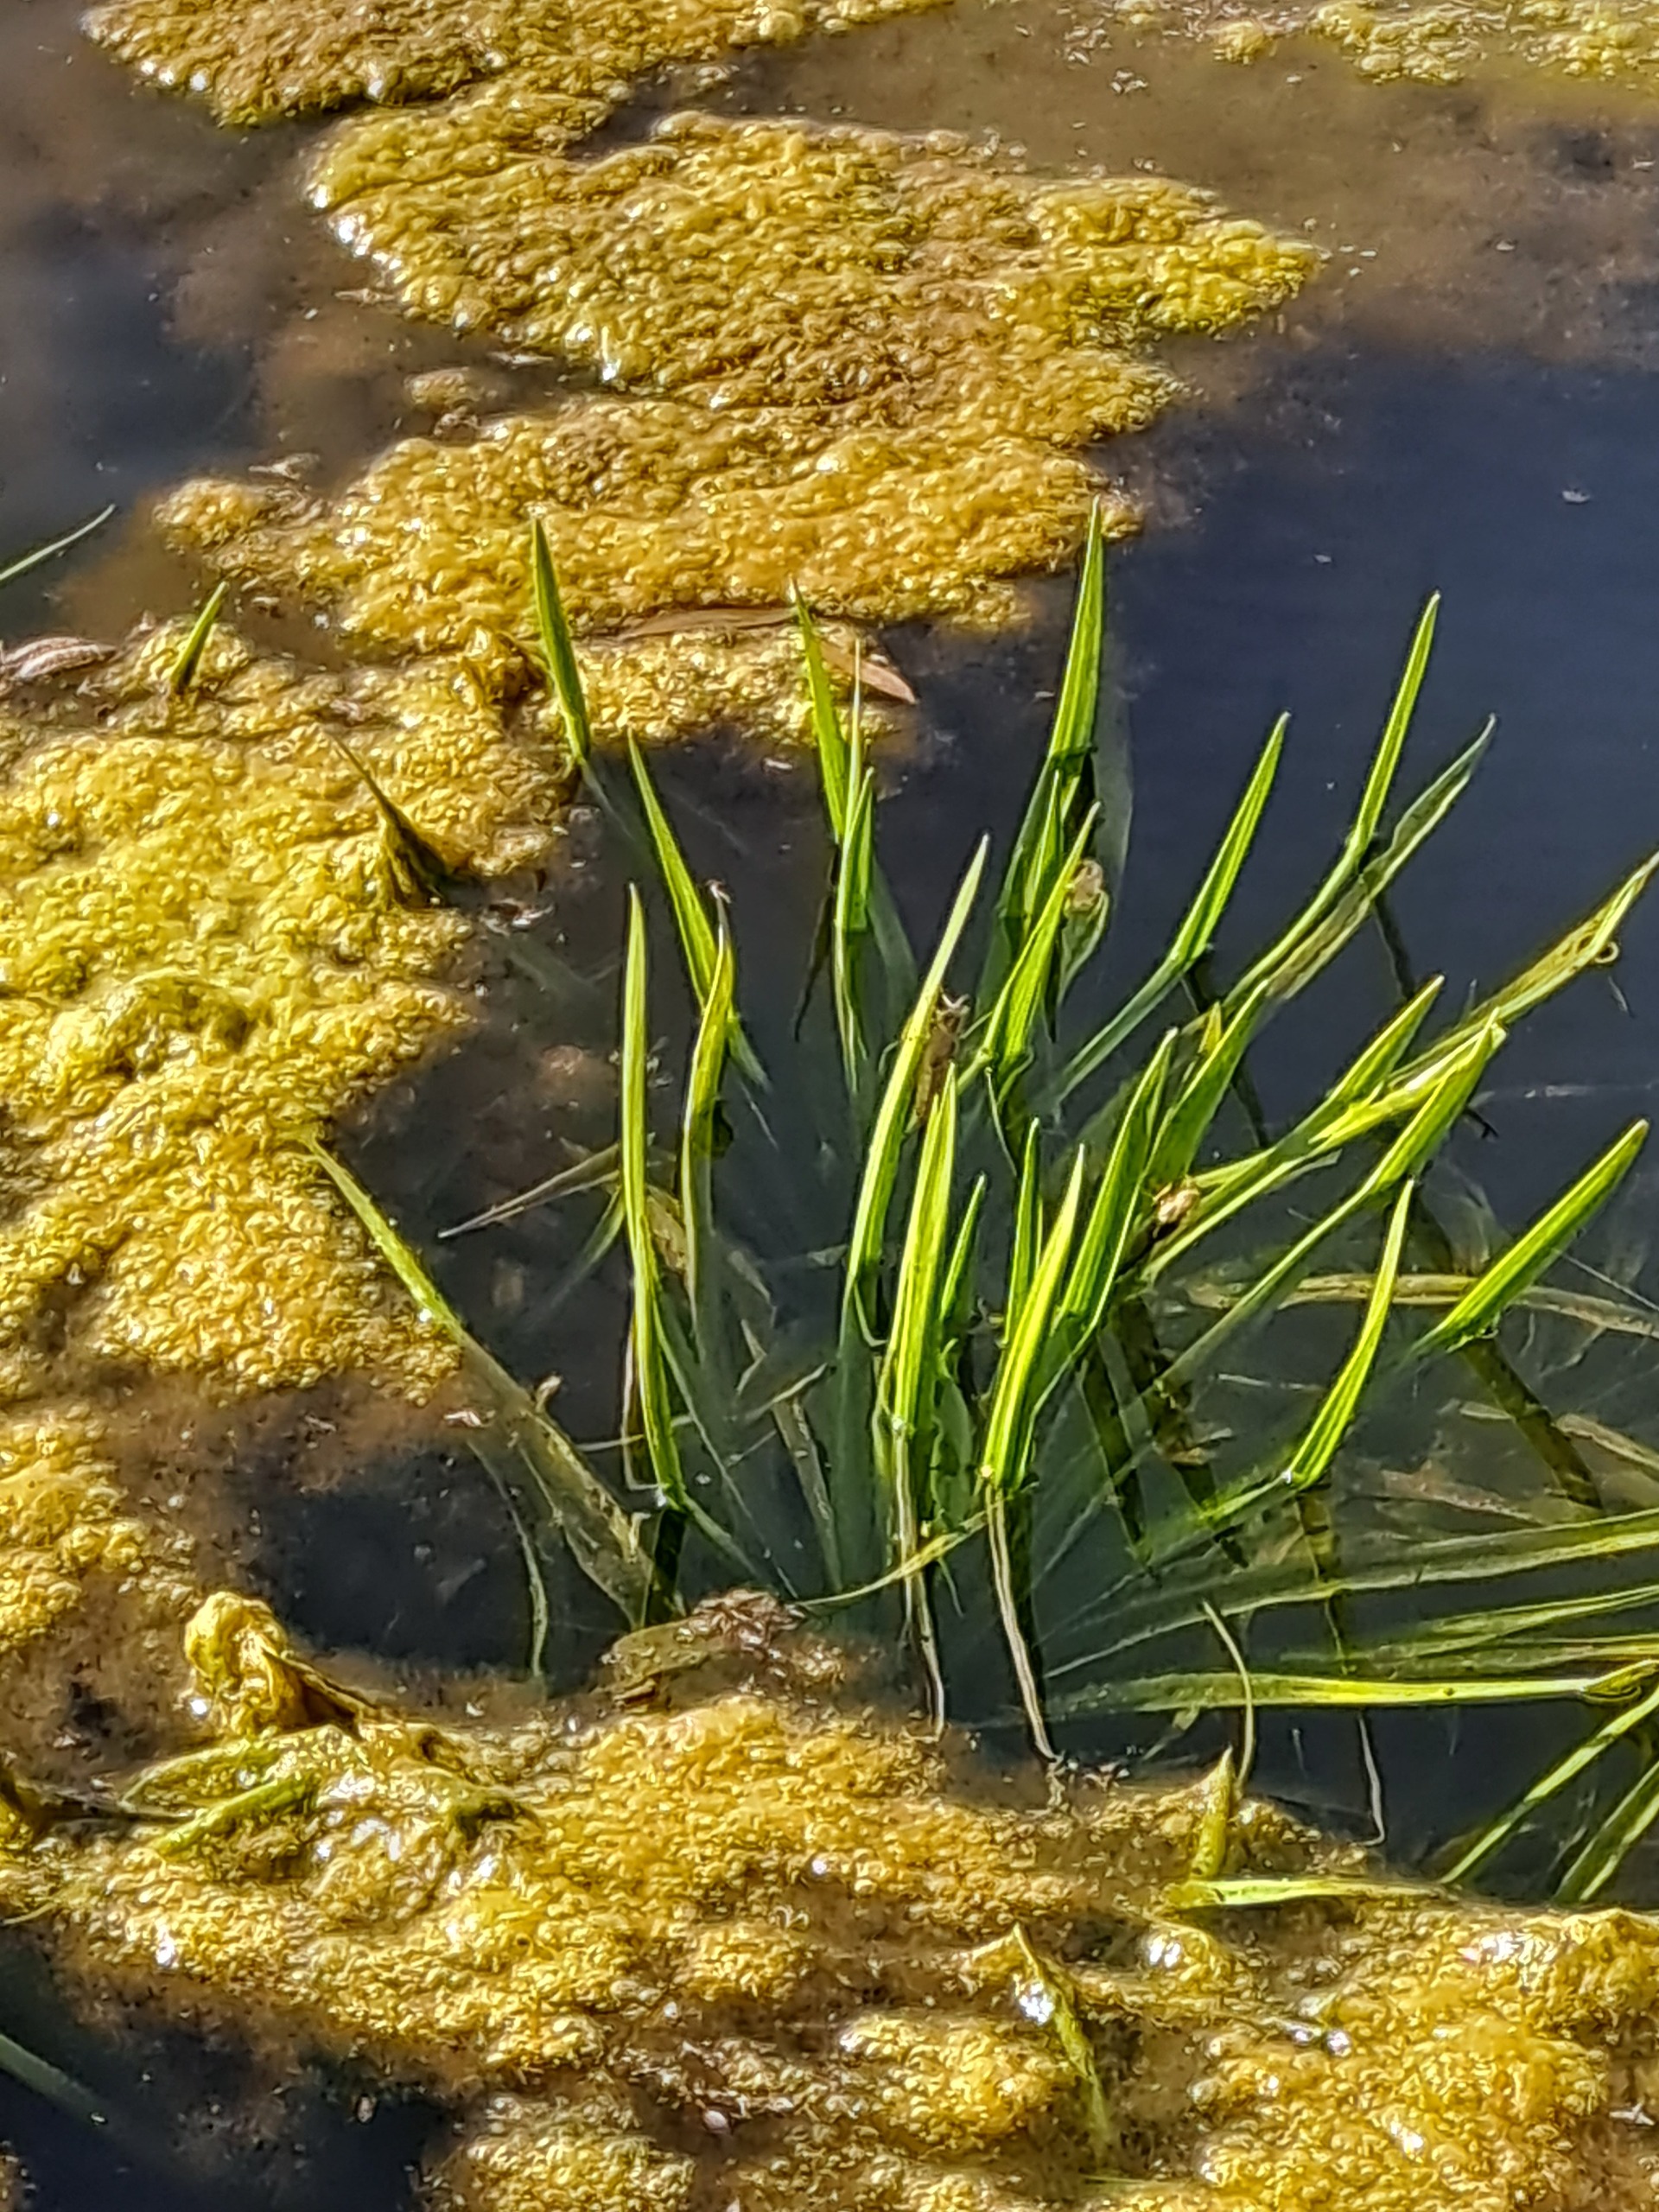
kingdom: Plantae
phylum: Tracheophyta
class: Liliopsida
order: Alismatales
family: Hydrocharitaceae
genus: Stratiotes
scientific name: Stratiotes aloides
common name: Krebseklo
